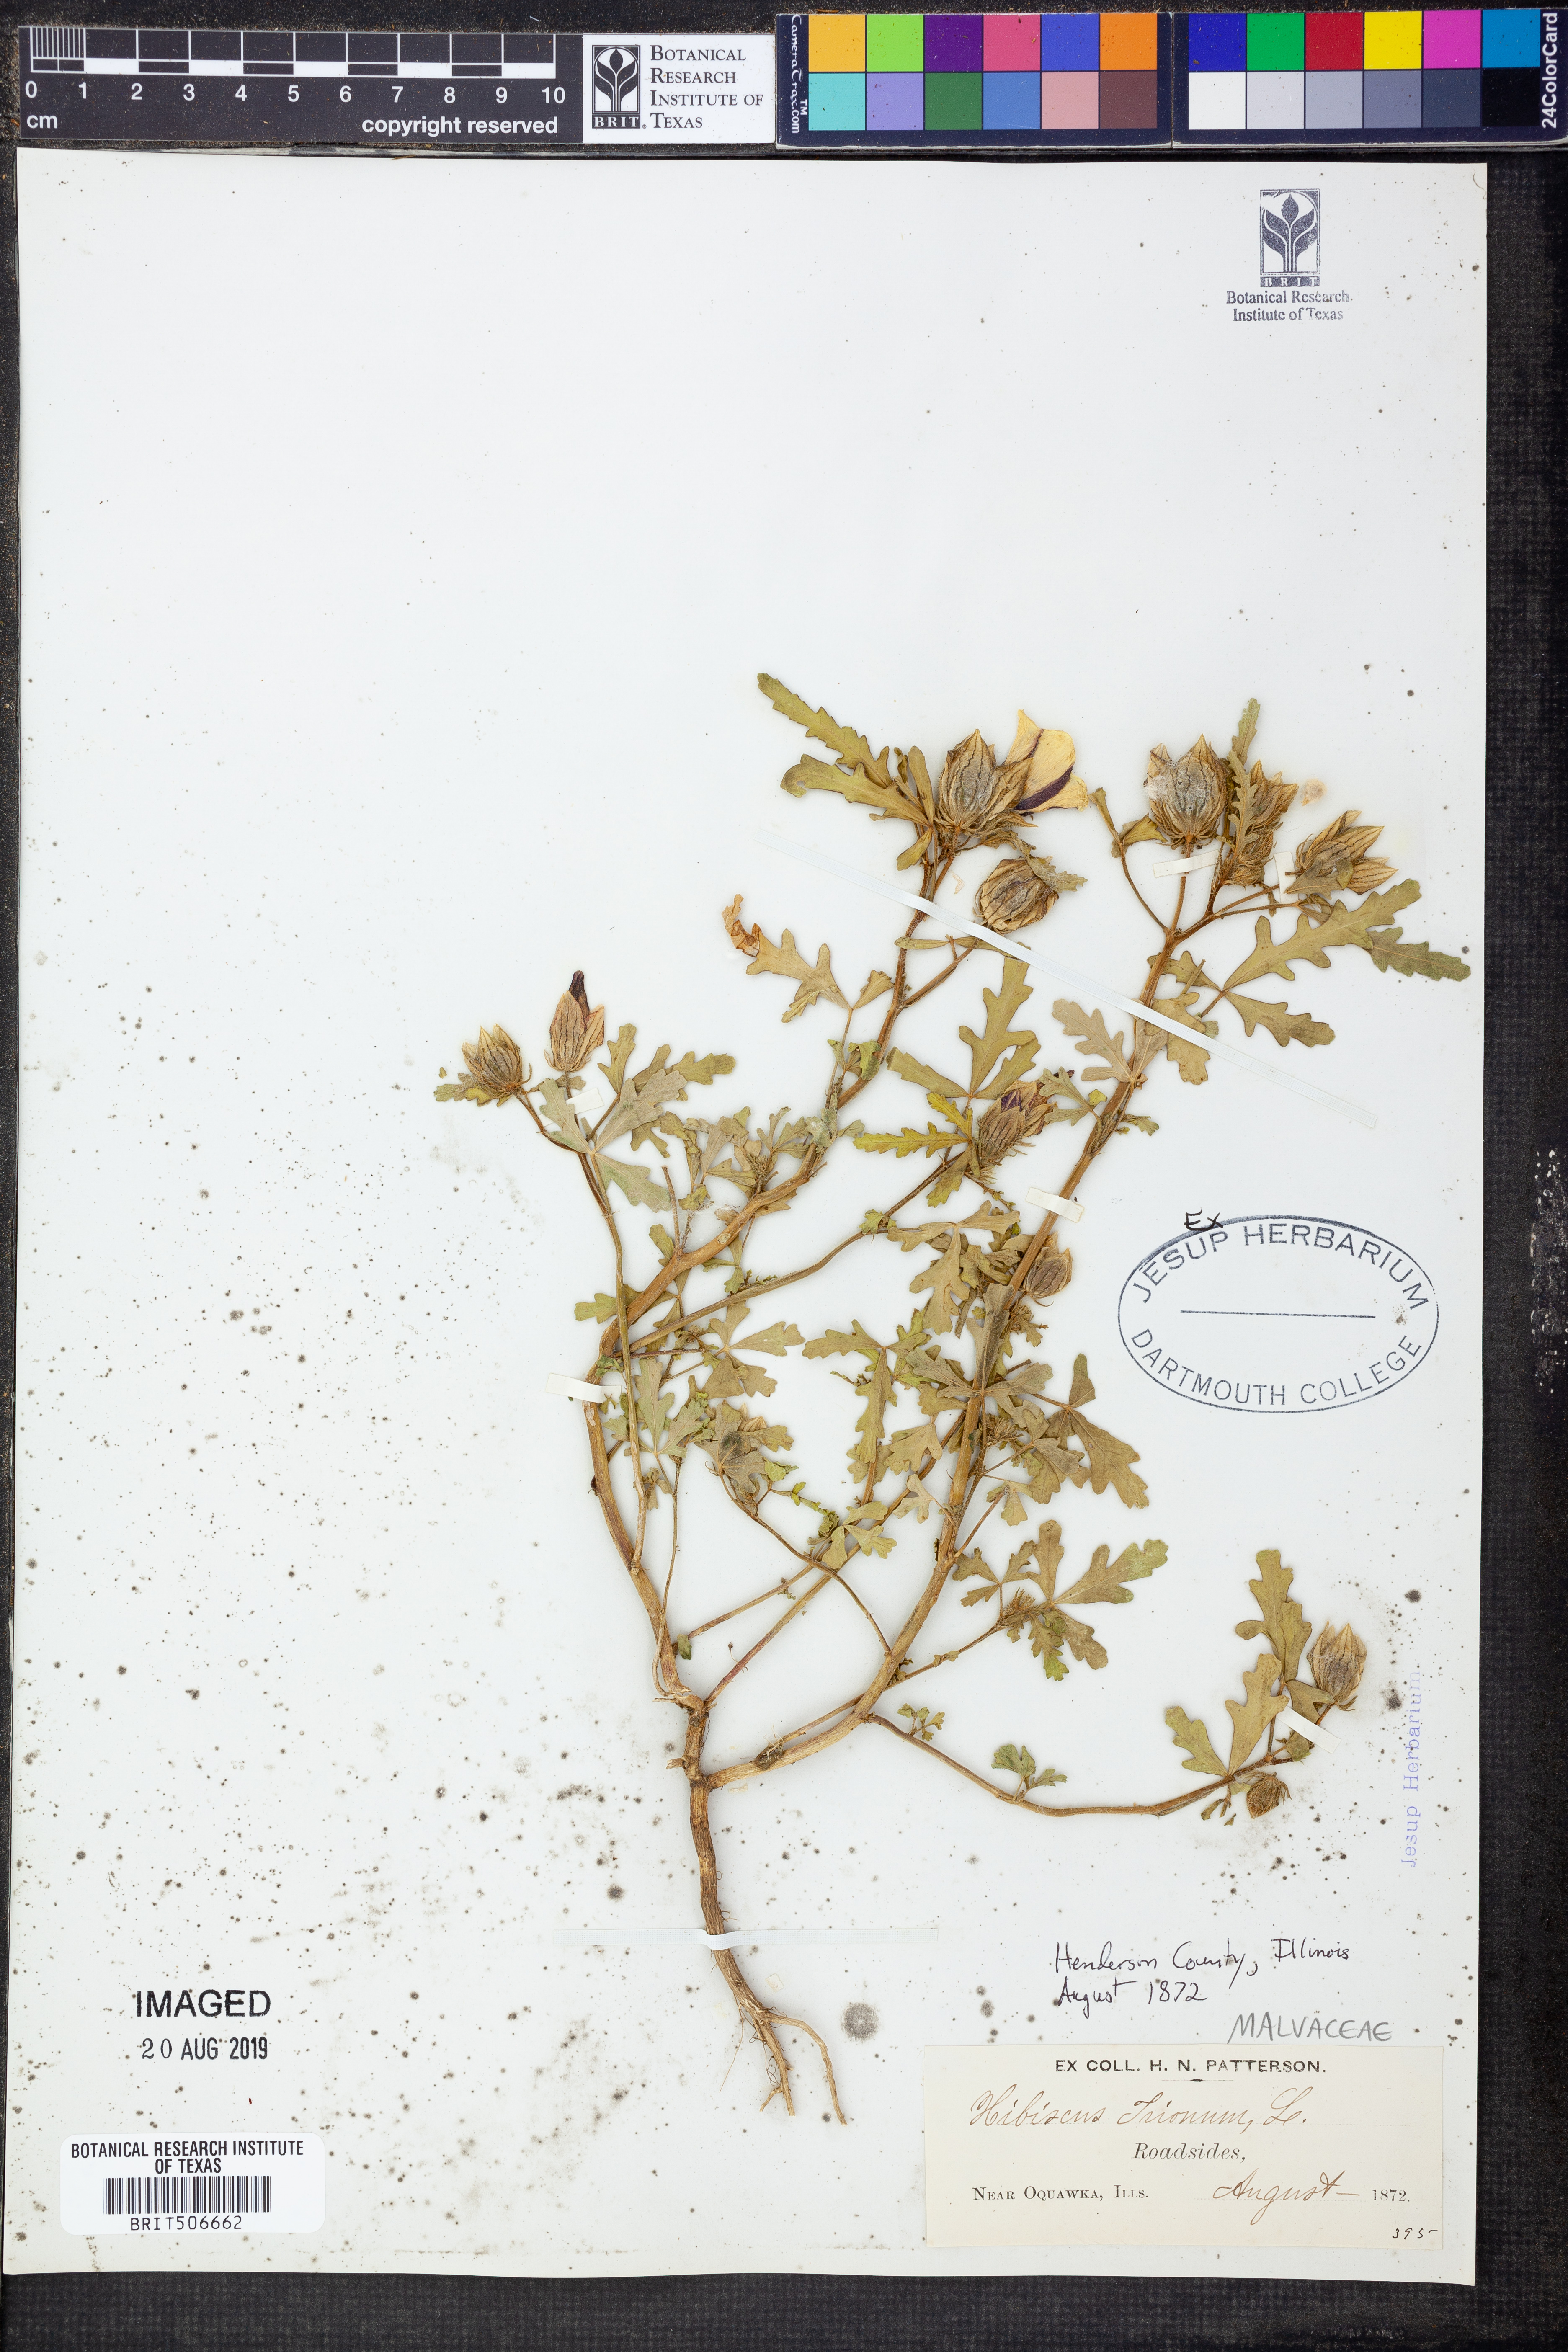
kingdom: Plantae
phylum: Tracheophyta
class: Magnoliopsida
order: Malvales
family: Malvaceae
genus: Hibiscus
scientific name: Hibiscus trionum
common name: Bladder ketmia
